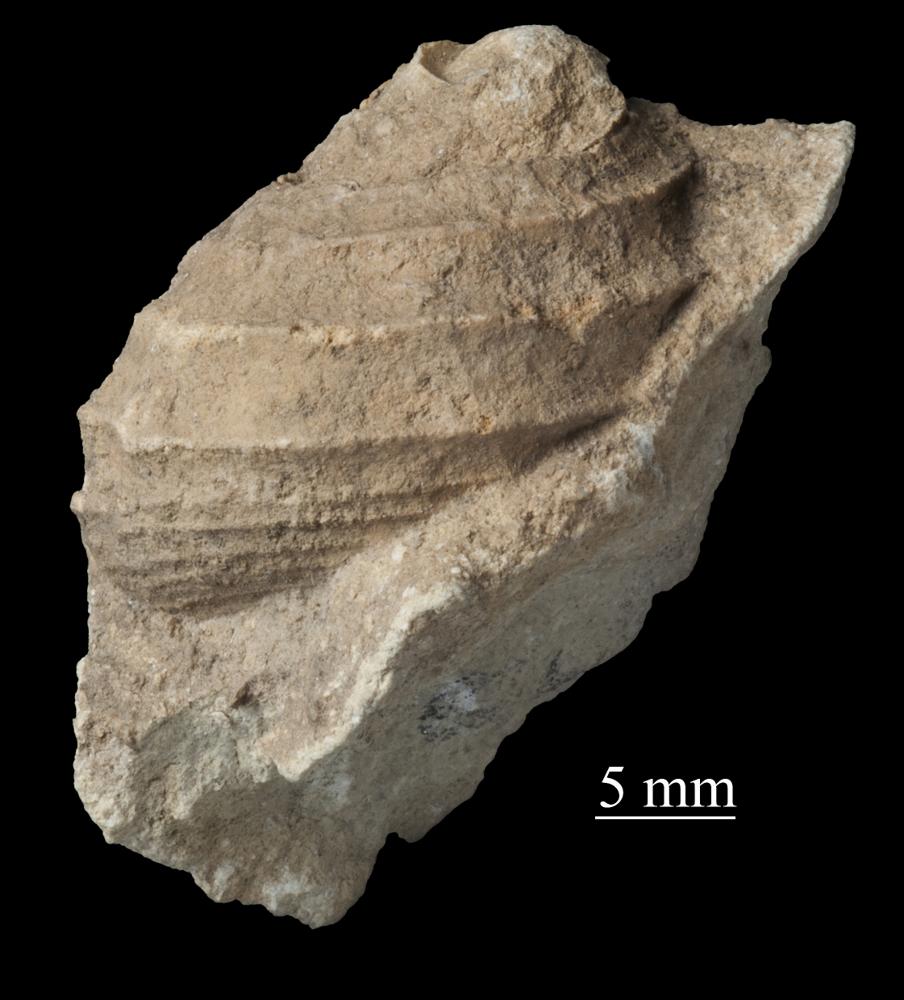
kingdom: Animalia
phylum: Mollusca
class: Gastropoda
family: Platyceratidae
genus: Cyclonema
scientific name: Cyclonema Turbo rupestre
